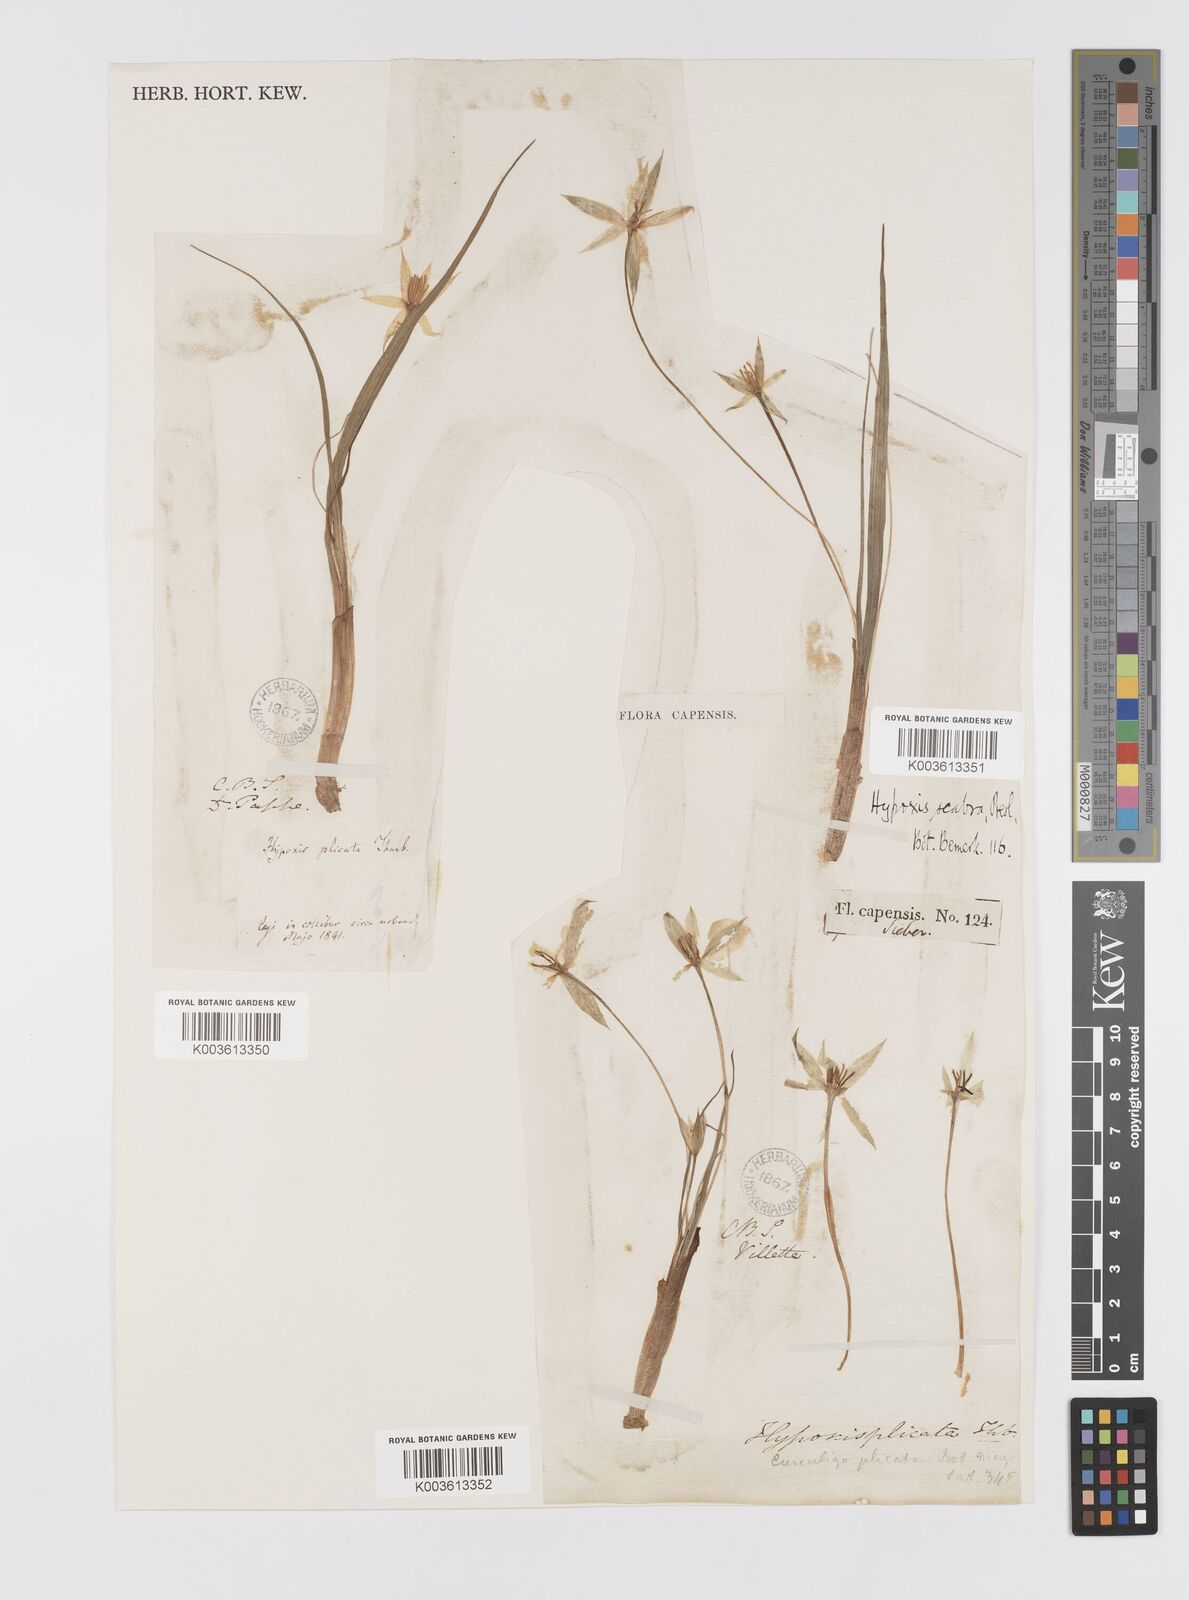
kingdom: Plantae
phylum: Tracheophyta
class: Liliopsida
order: Asparagales
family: Hypoxidaceae
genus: Empodium
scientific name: Empodium plicatum
